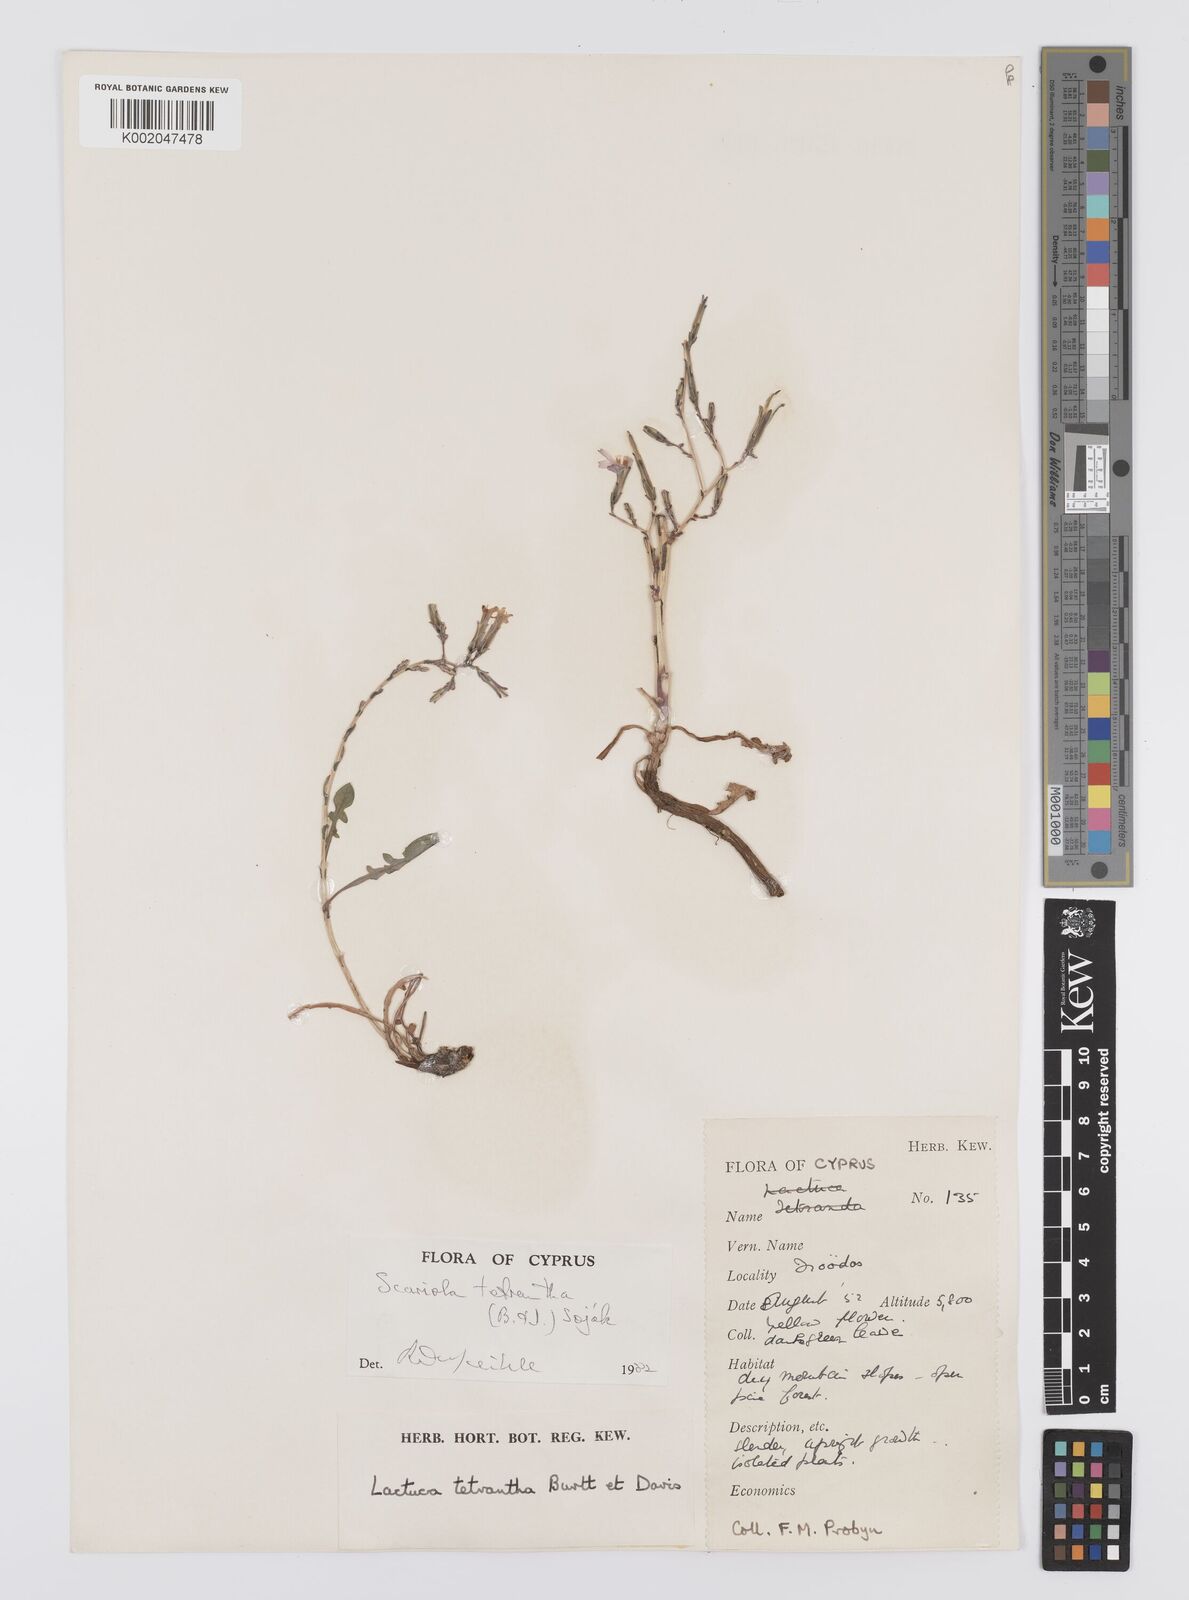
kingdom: Plantae
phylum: Tracheophyta
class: Magnoliopsida
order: Asterales
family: Asteraceae
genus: Lactuca
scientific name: Lactuca tetrantha
